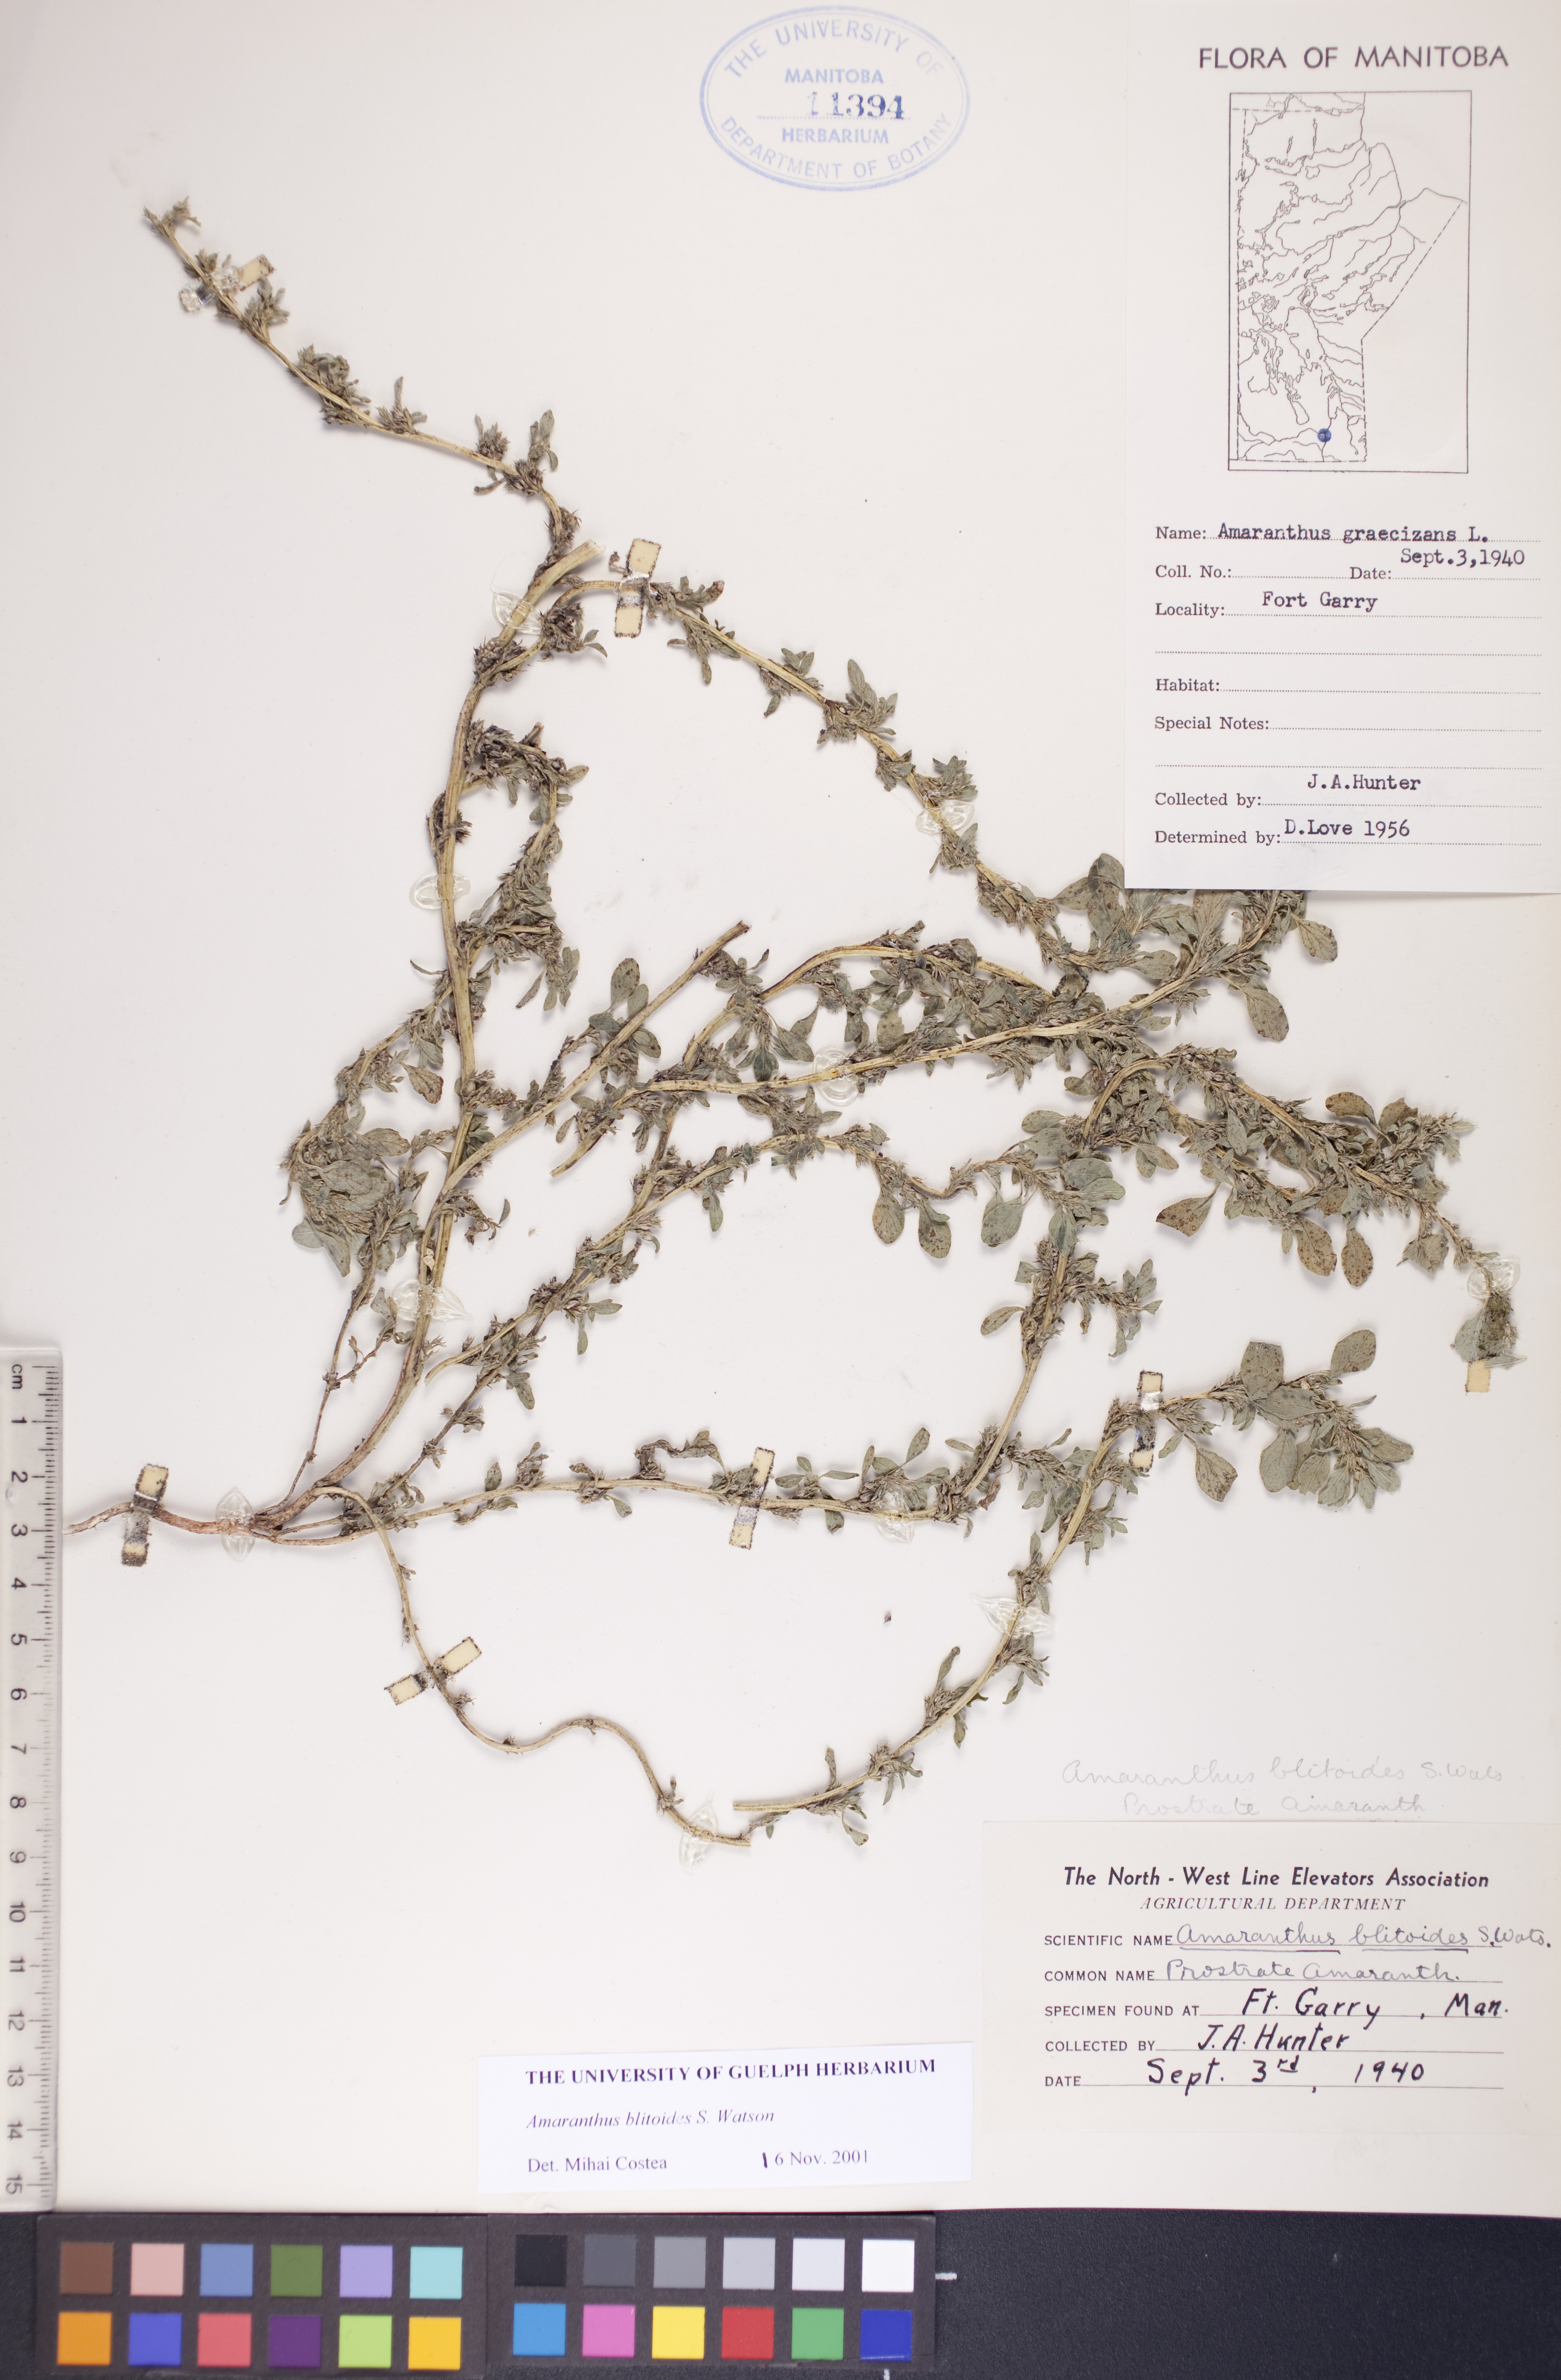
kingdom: Plantae
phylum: Tracheophyta
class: Magnoliopsida
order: Caryophyllales
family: Amaranthaceae
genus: Amaranthus
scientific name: Amaranthus blitoides
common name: Prostrate pigweed
